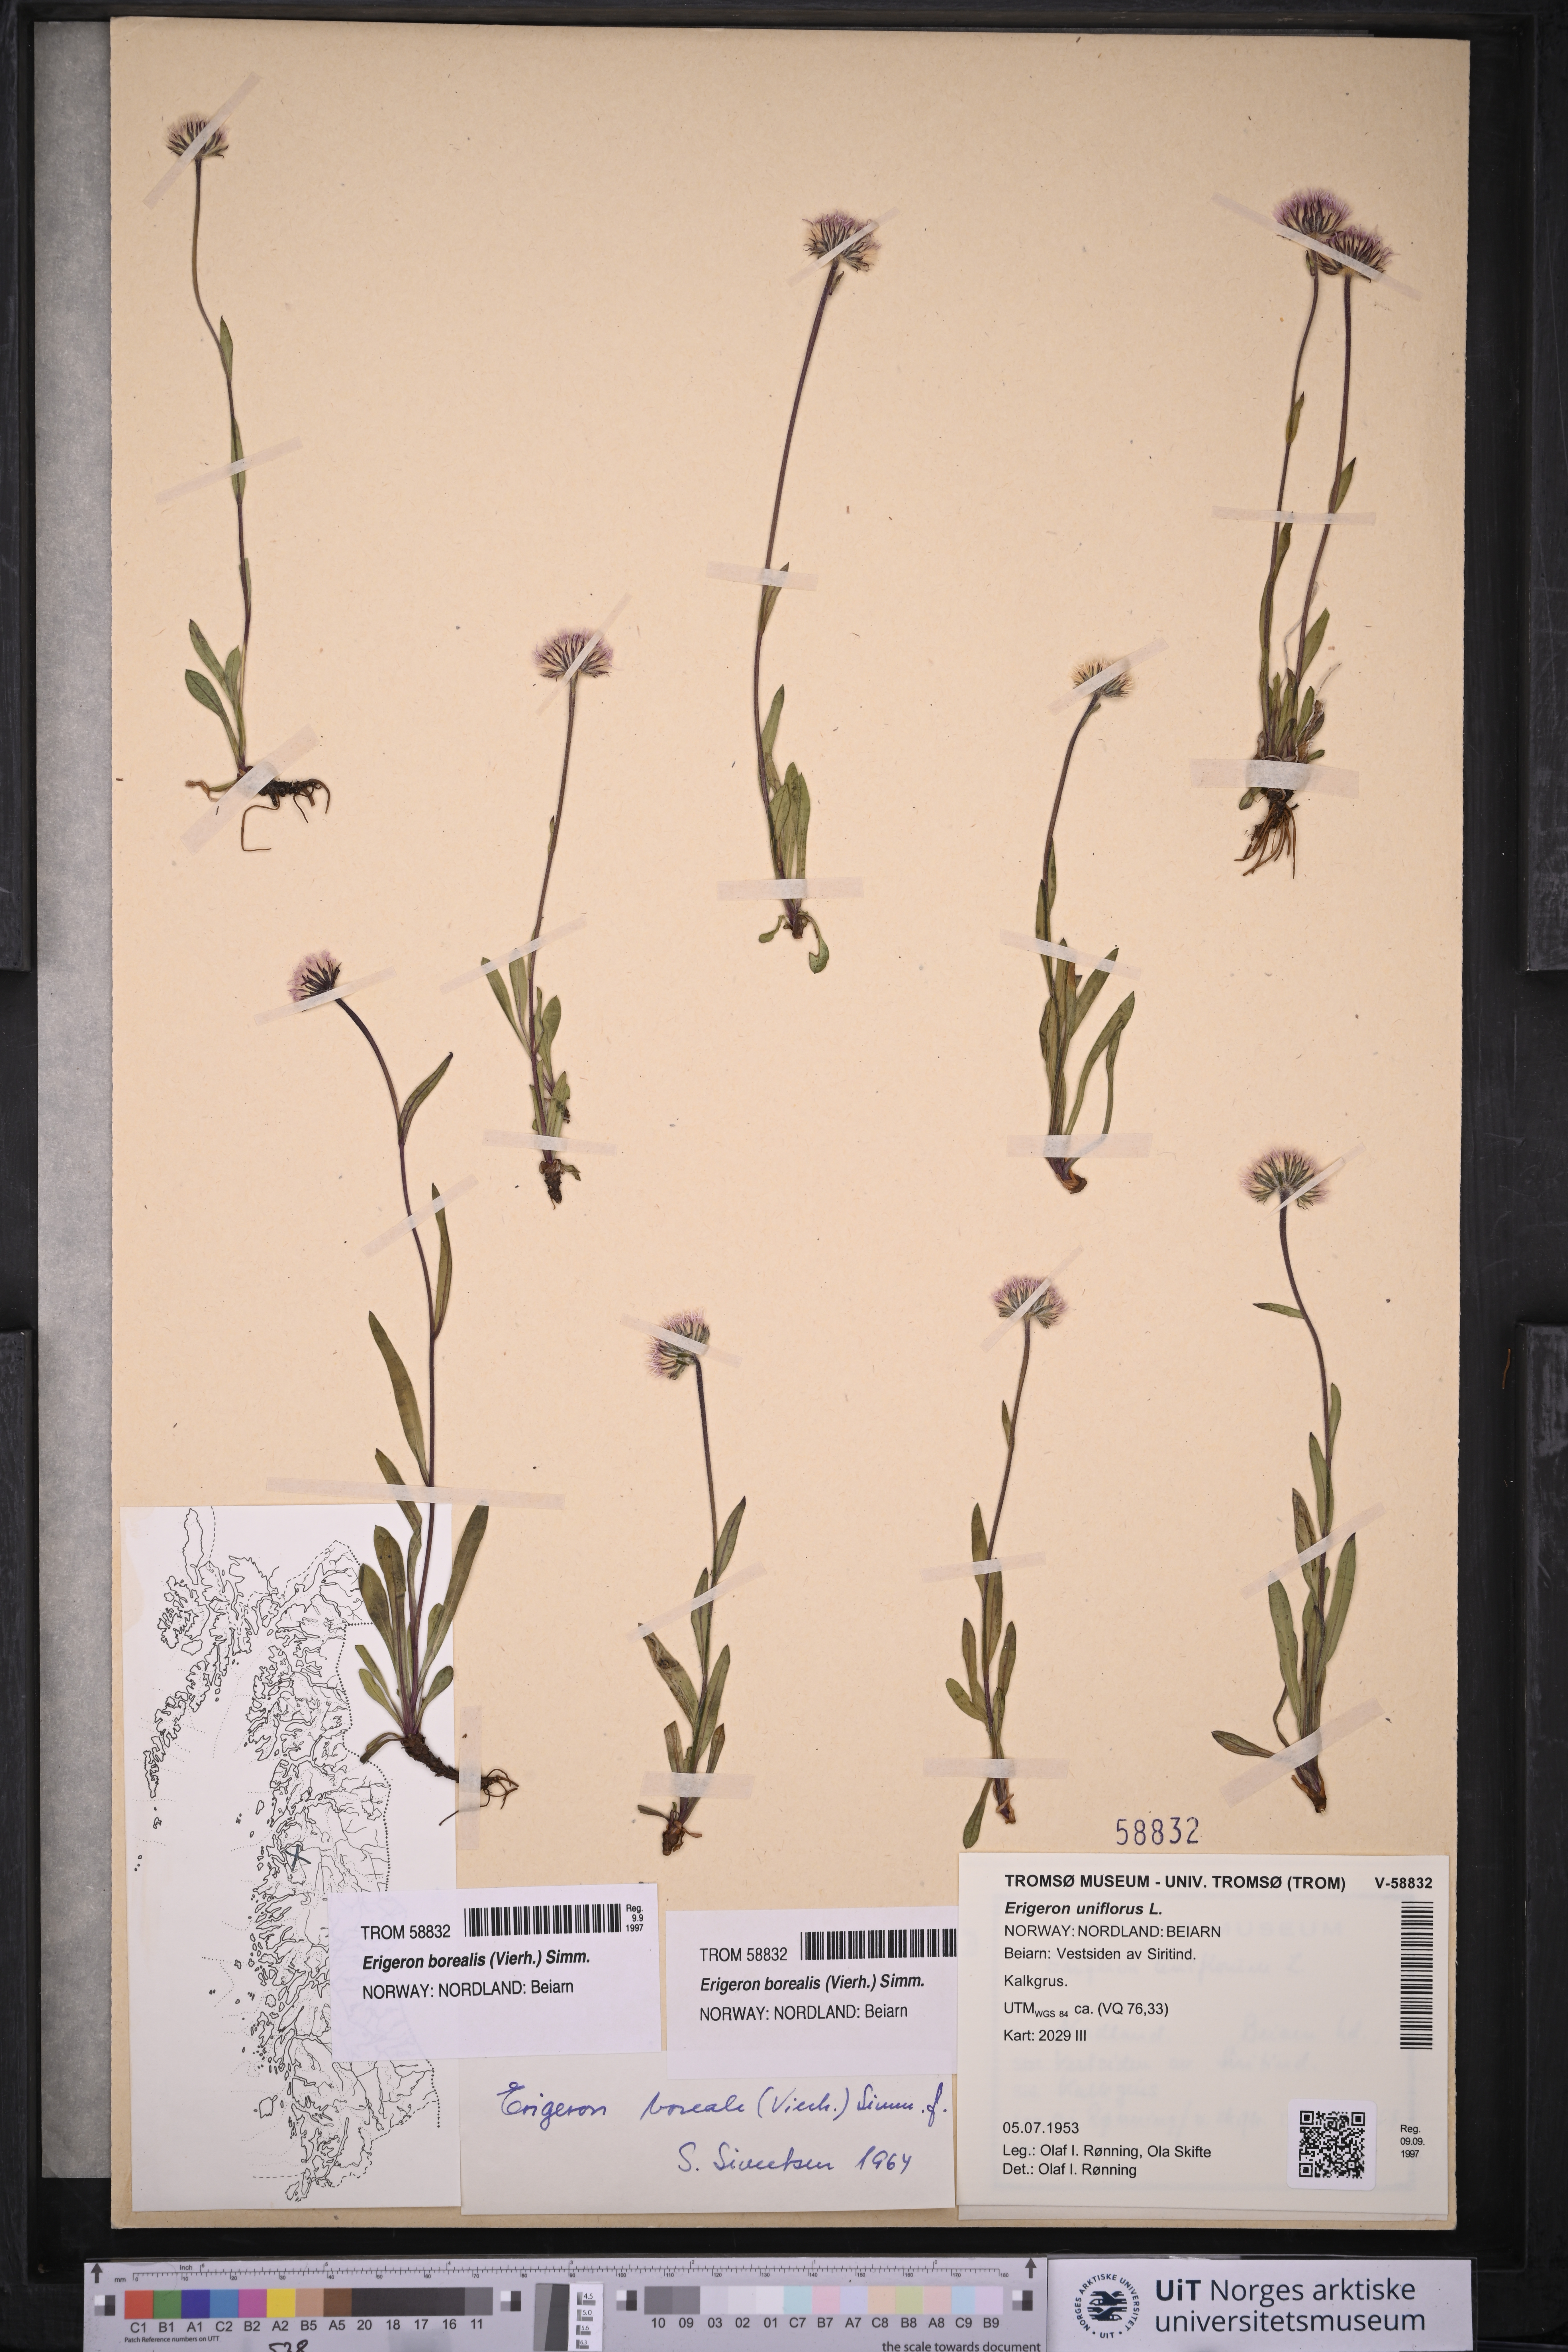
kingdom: Plantae
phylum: Tracheophyta
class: Magnoliopsida
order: Asterales
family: Asteraceae
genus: Erigeron
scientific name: Erigeron borealis
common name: Alpine fleabane
